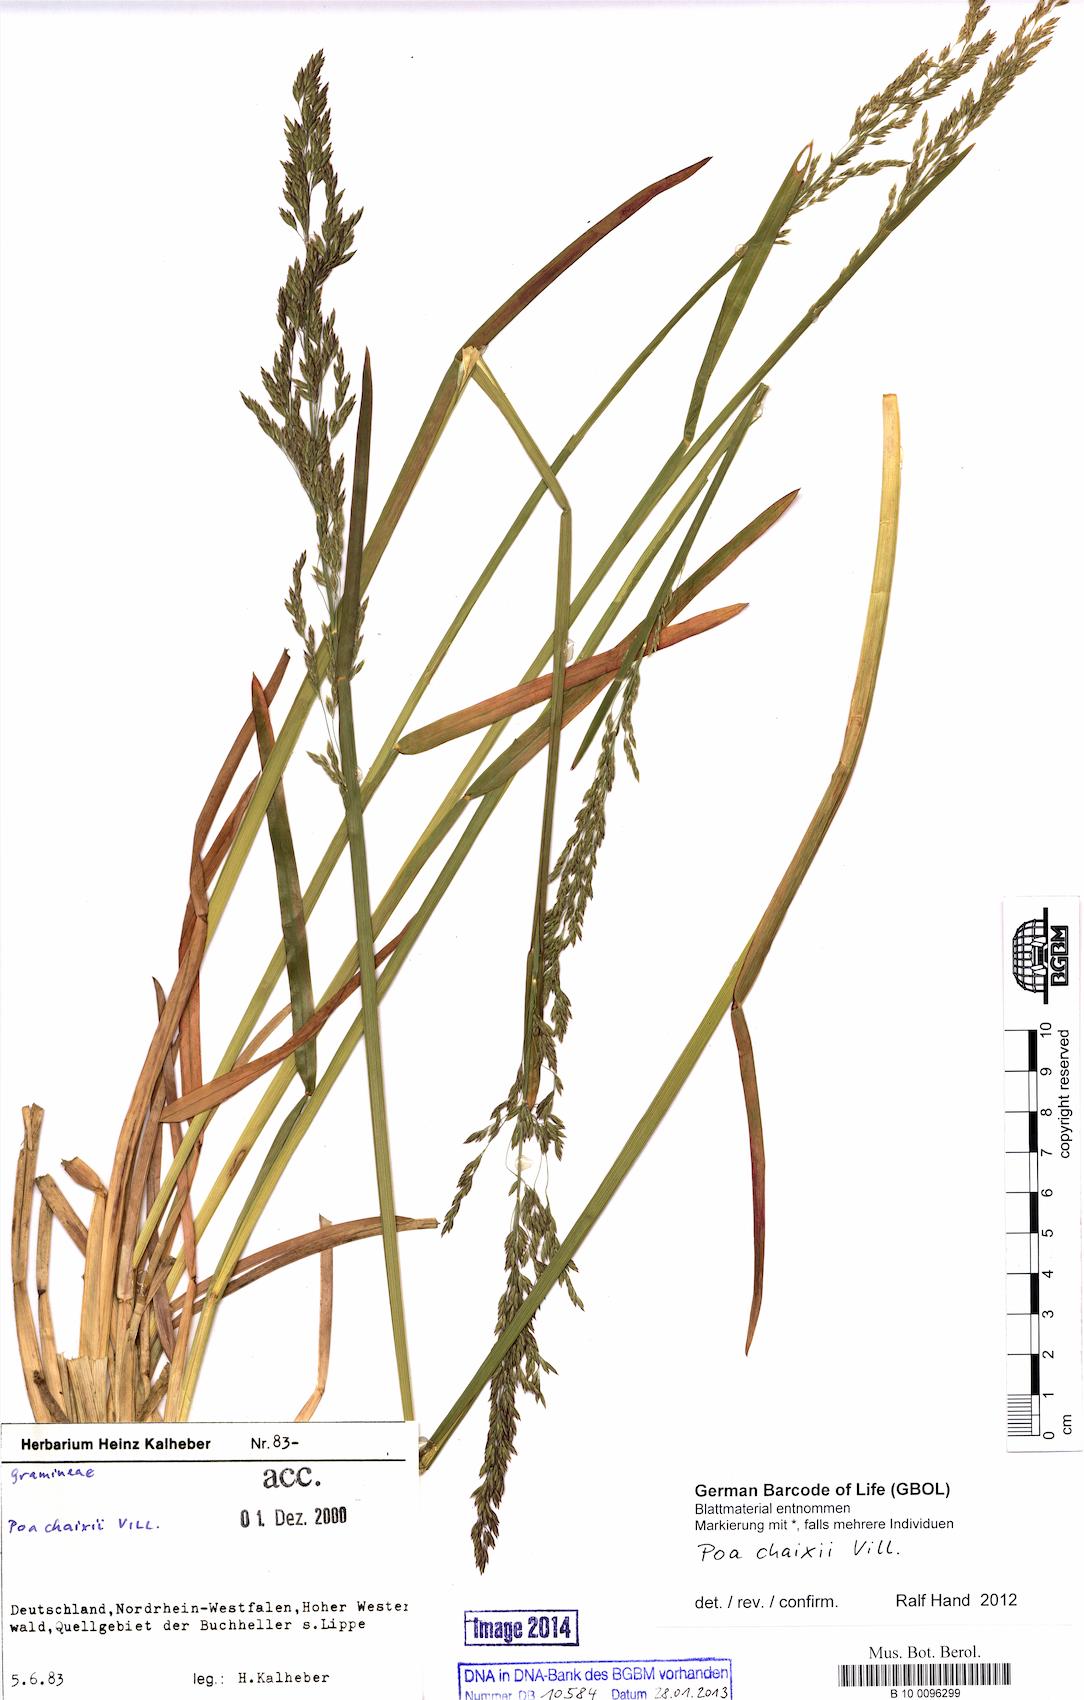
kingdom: Plantae
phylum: Tracheophyta
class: Liliopsida
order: Poales
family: Poaceae
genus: Poa
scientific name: Poa chaixii
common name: Broad-leaved meadow-grass
